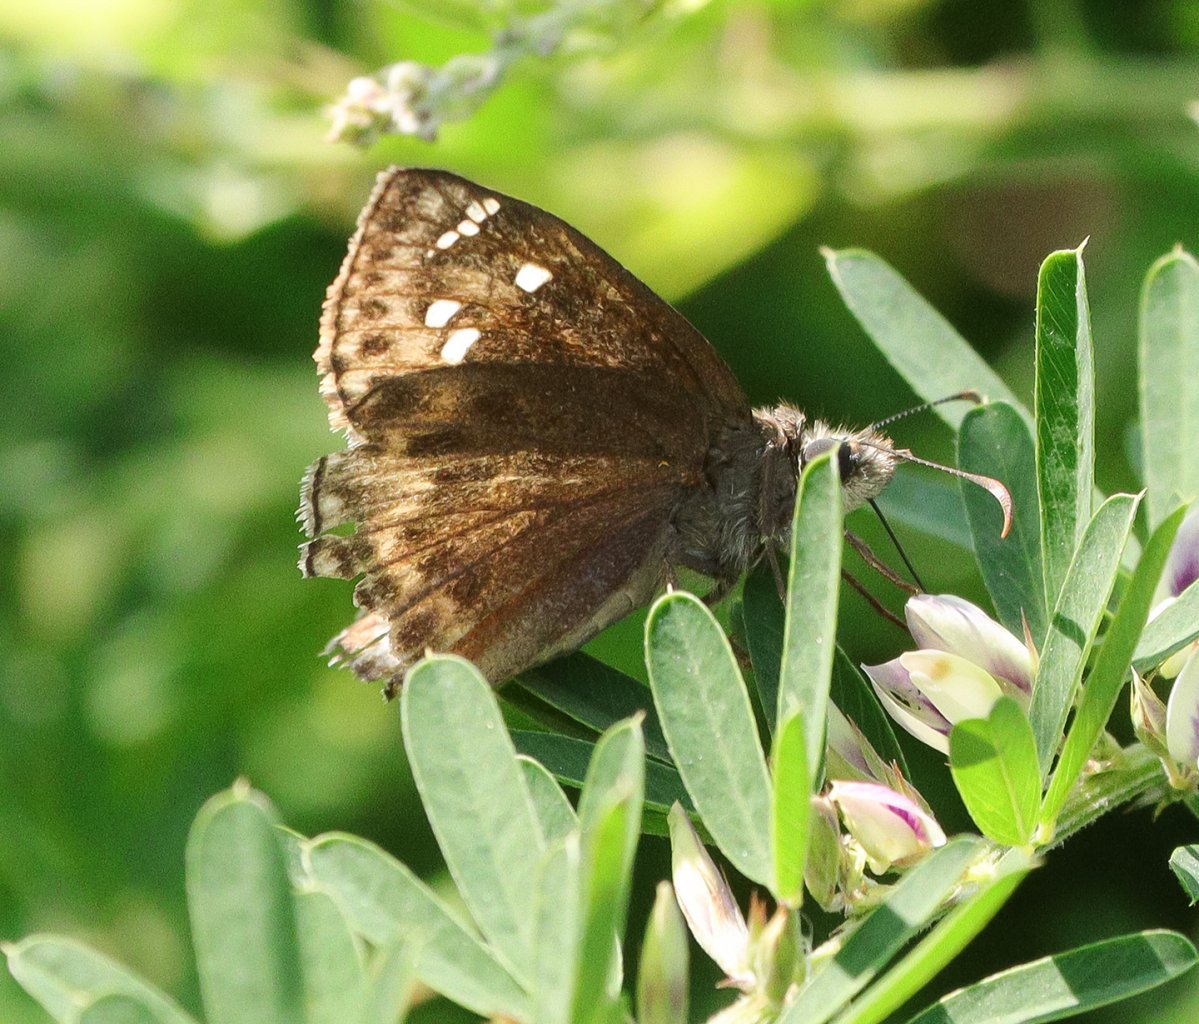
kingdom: Animalia
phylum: Arthropoda
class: Insecta
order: Lepidoptera
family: Hesperiidae
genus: Gesta
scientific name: Gesta
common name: Horace's Duskywing
